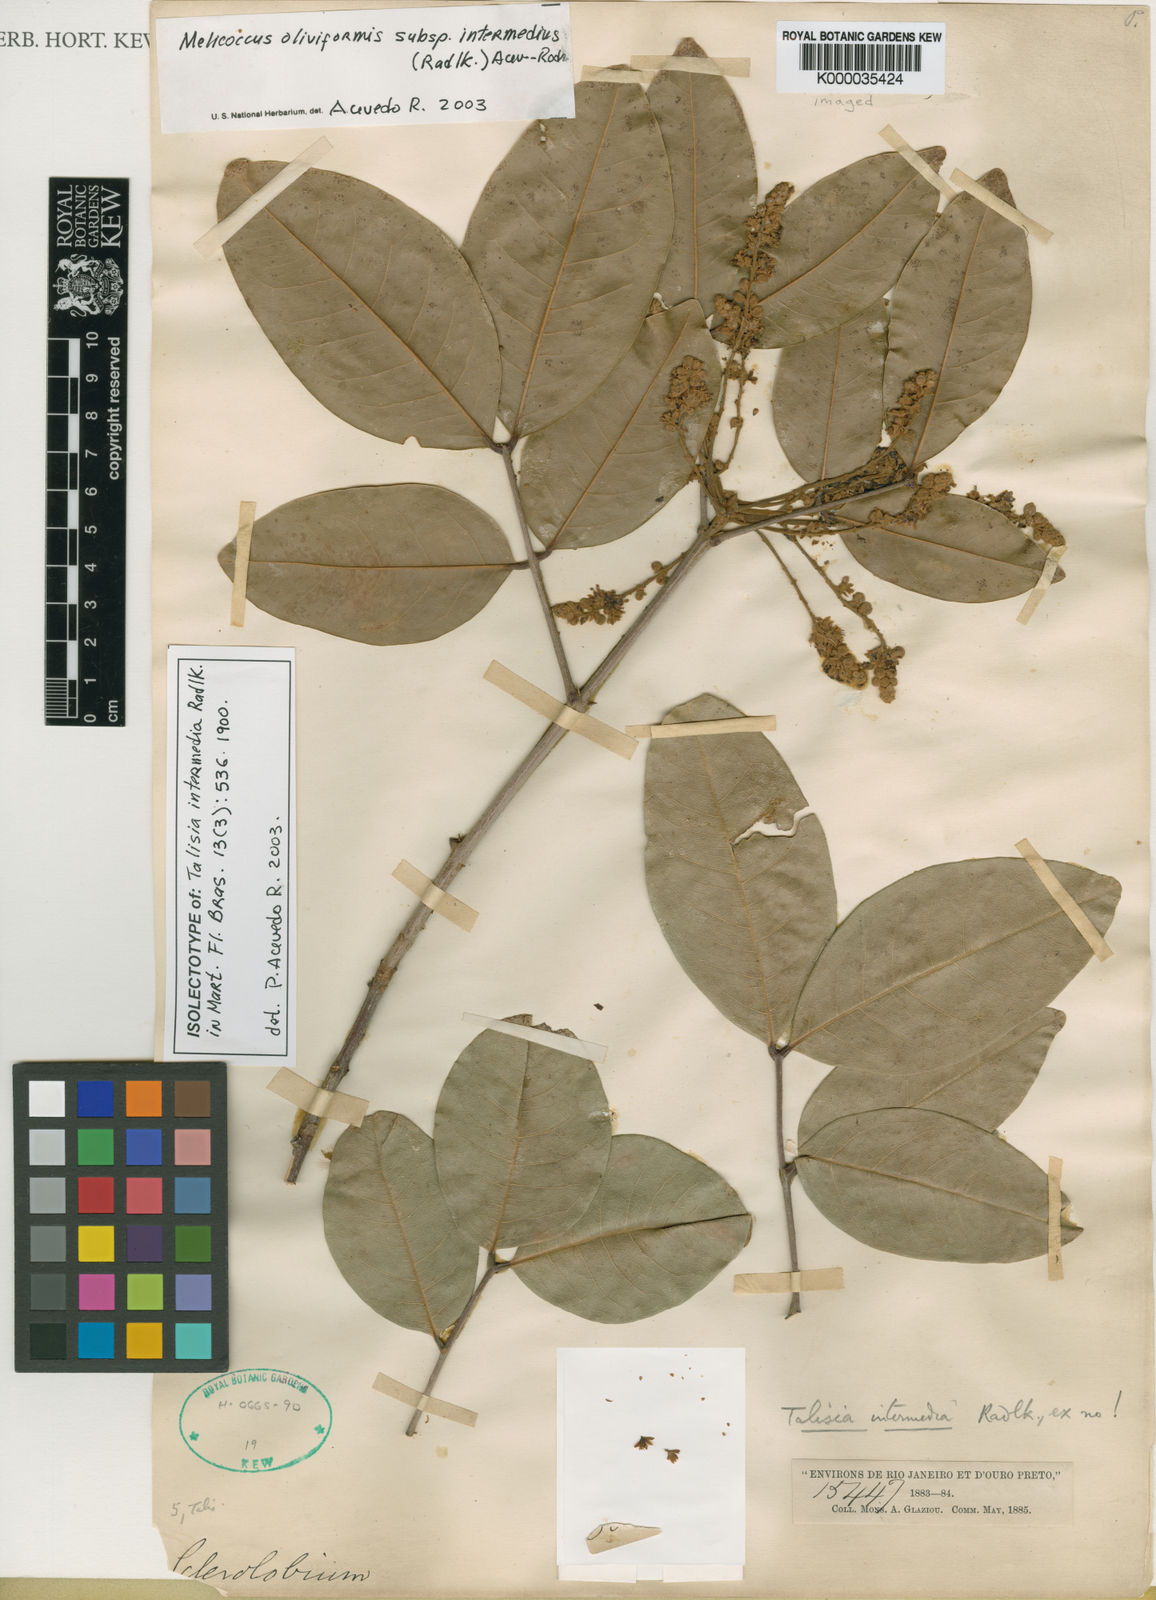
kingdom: Plantae
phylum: Tracheophyta
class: Magnoliopsida
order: Sapindales
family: Sapindaceae
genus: Melicoccus
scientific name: Melicoccus oliviformis
